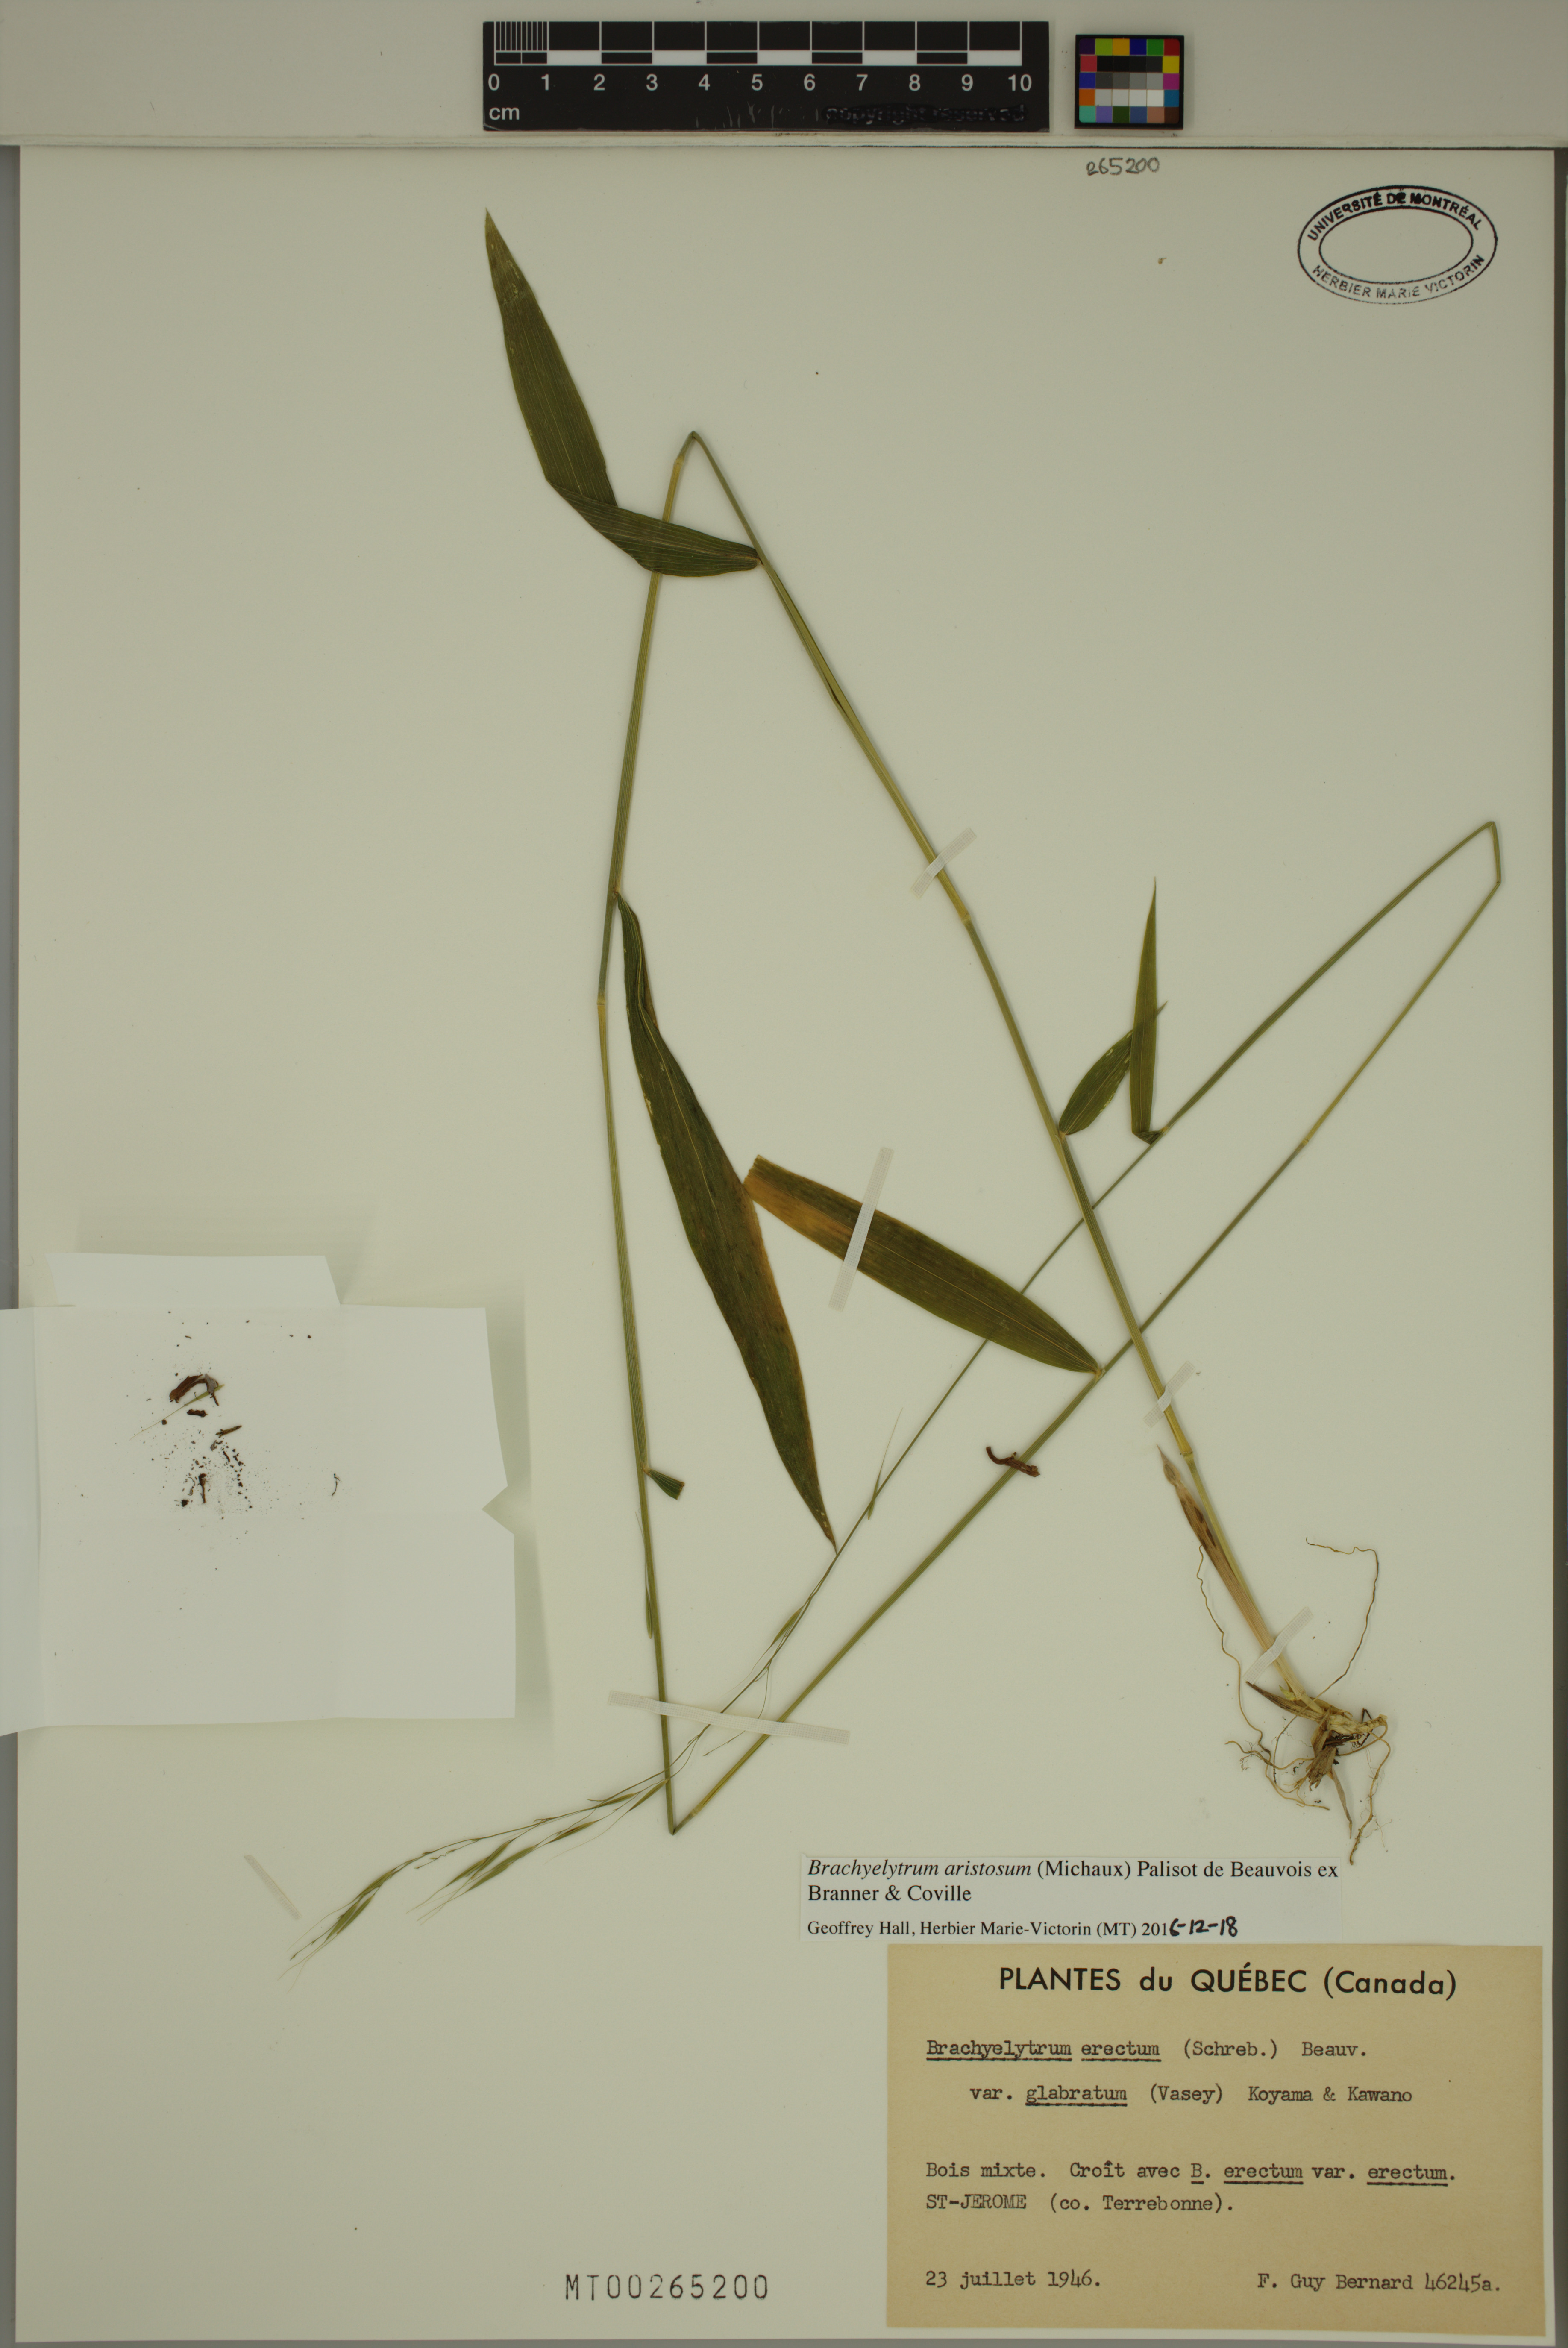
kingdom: Plantae
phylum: Tracheophyta
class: Liliopsida
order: Poales
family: Poaceae
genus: Brachyelytrum
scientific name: Brachyelytrum aristosum
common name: Northern shorthusk
